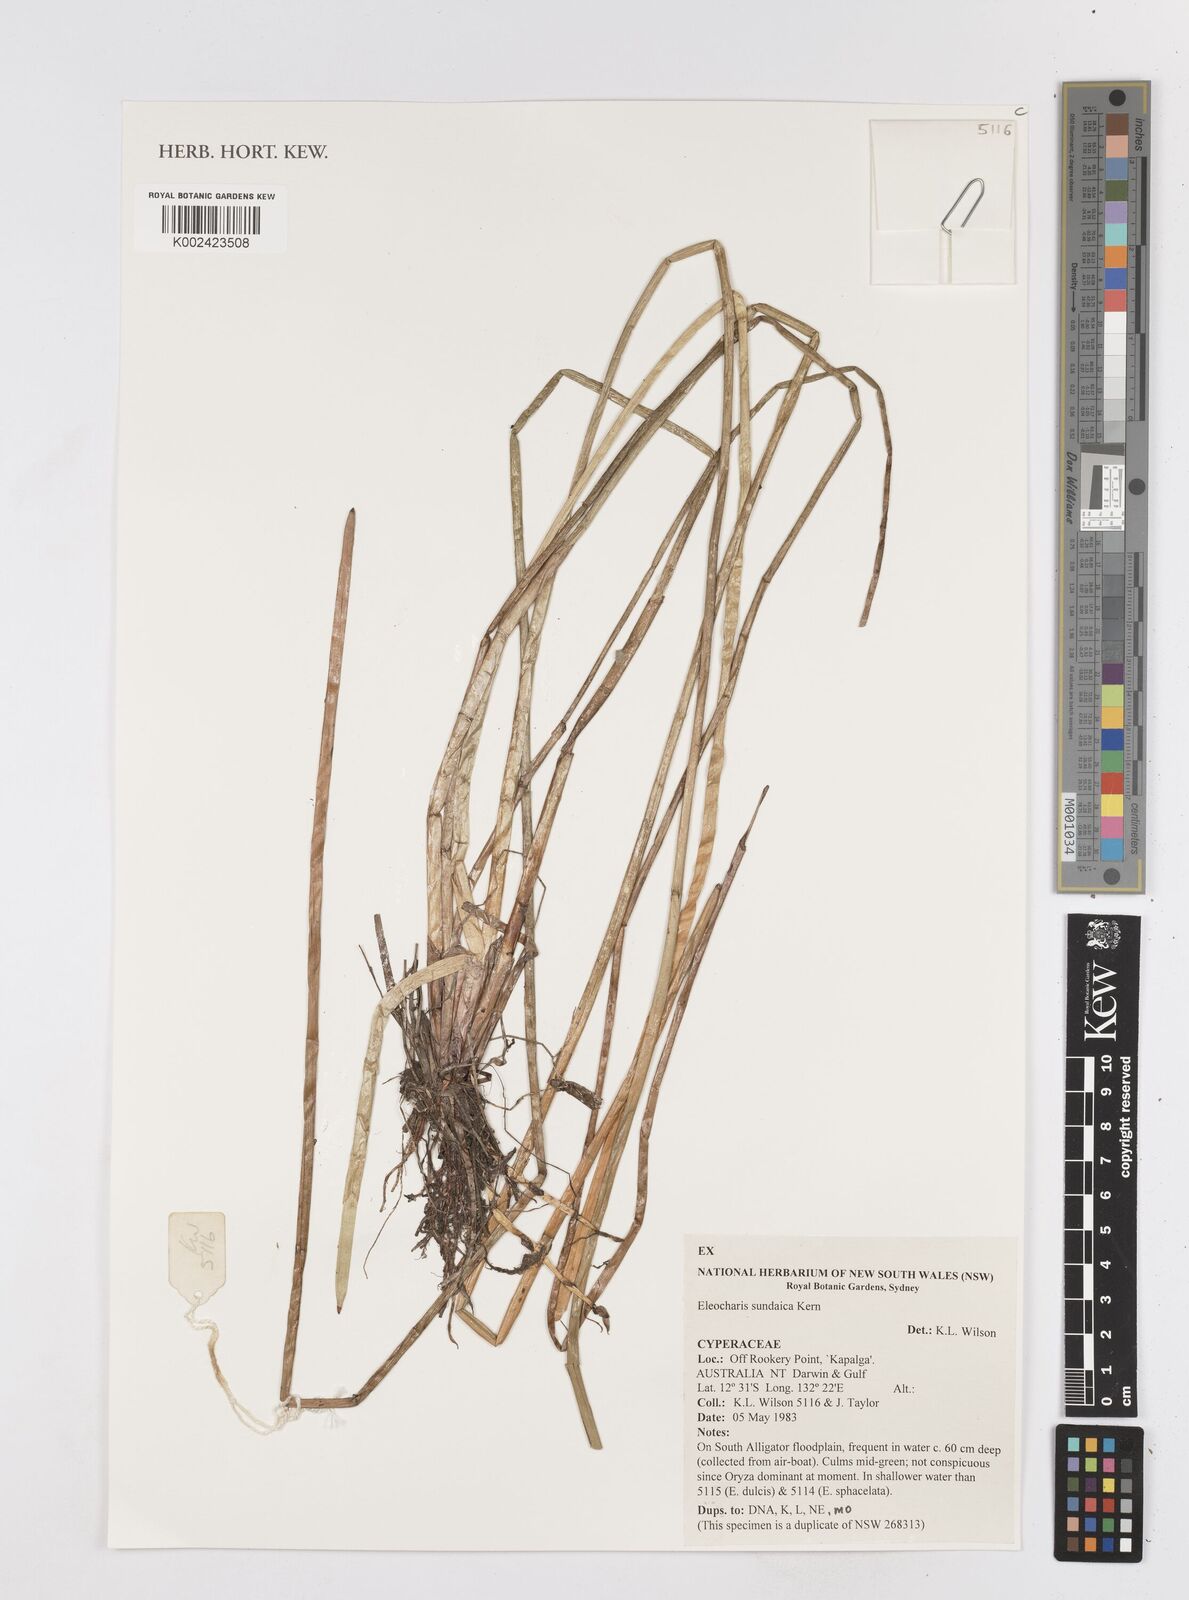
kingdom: Plantae
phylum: Tracheophyta
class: Liliopsida
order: Poales
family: Cyperaceae
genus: Eleocharis
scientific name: Eleocharis sundaica
